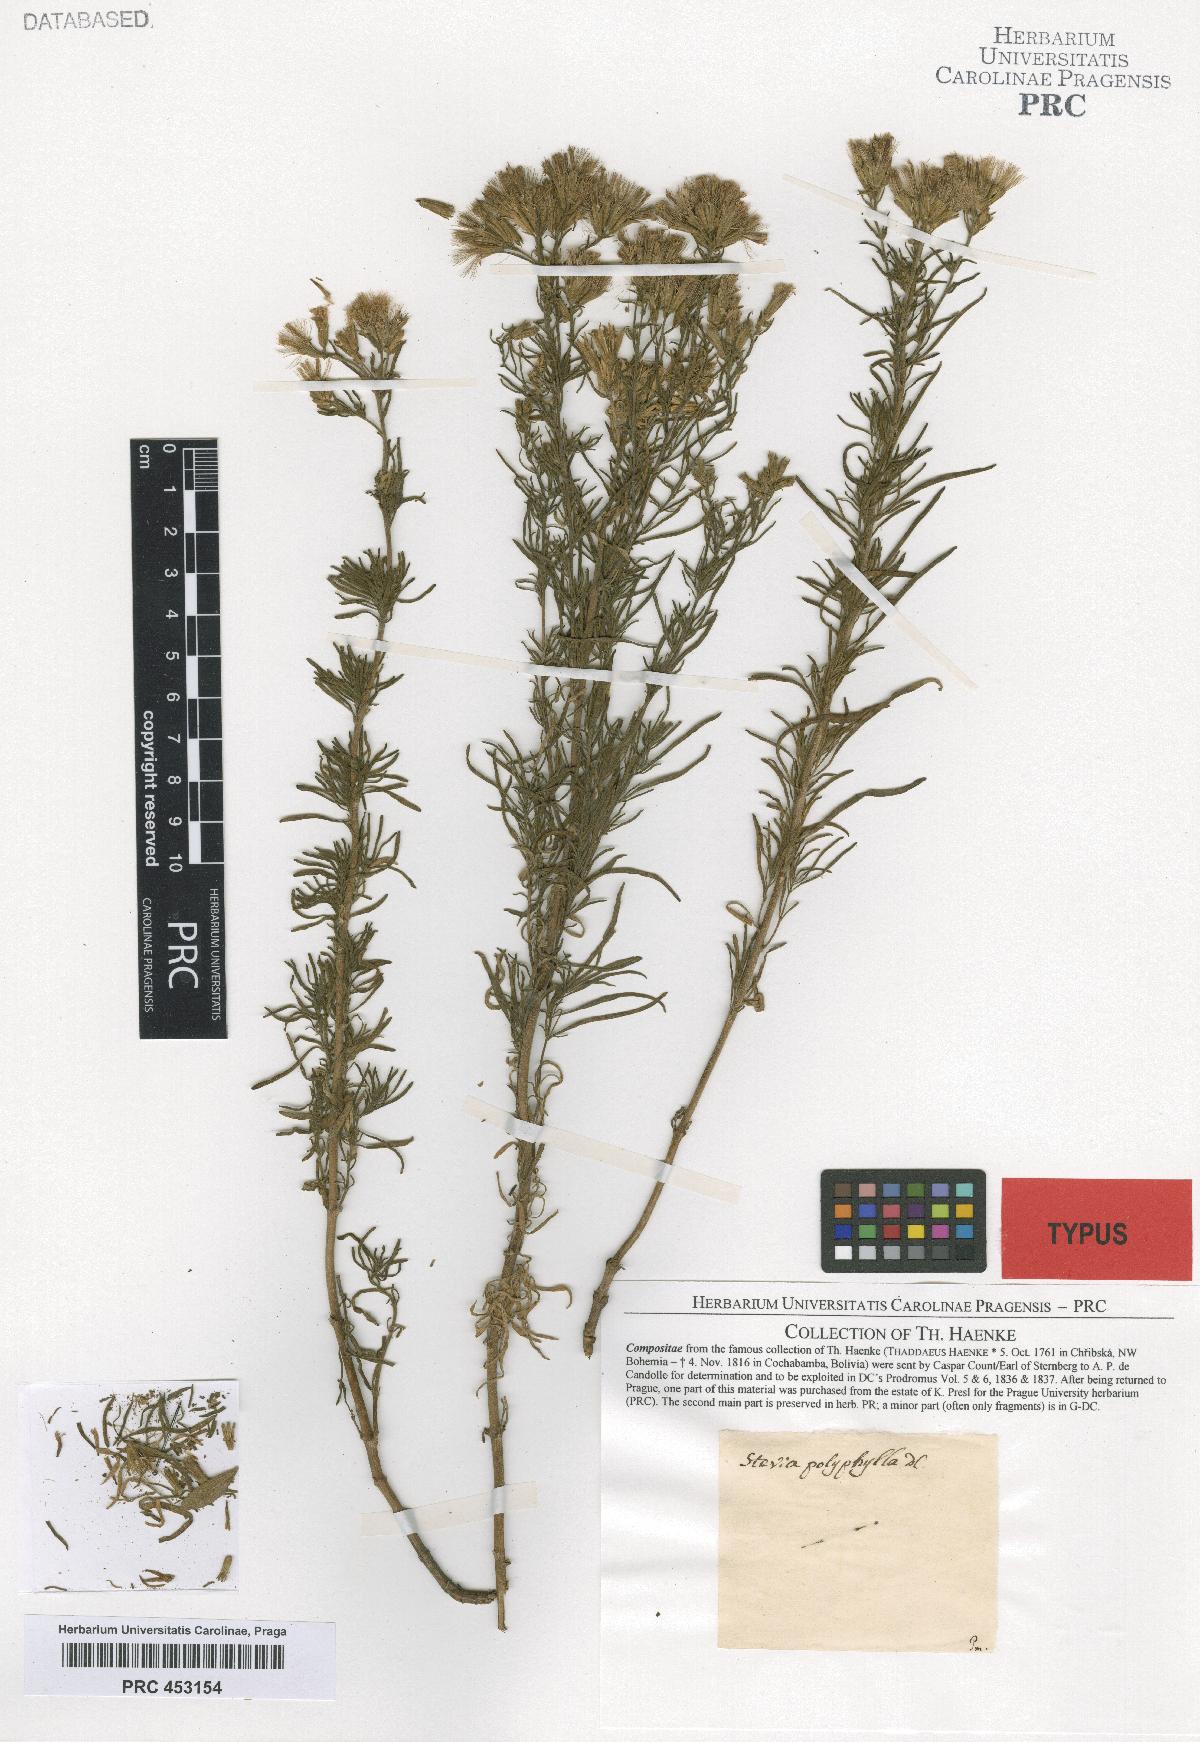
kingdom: Plantae
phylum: Tracheophyta
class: Magnoliopsida
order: Asterales
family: Asteraceae
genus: Stevia
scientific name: Stevia polyphylla
